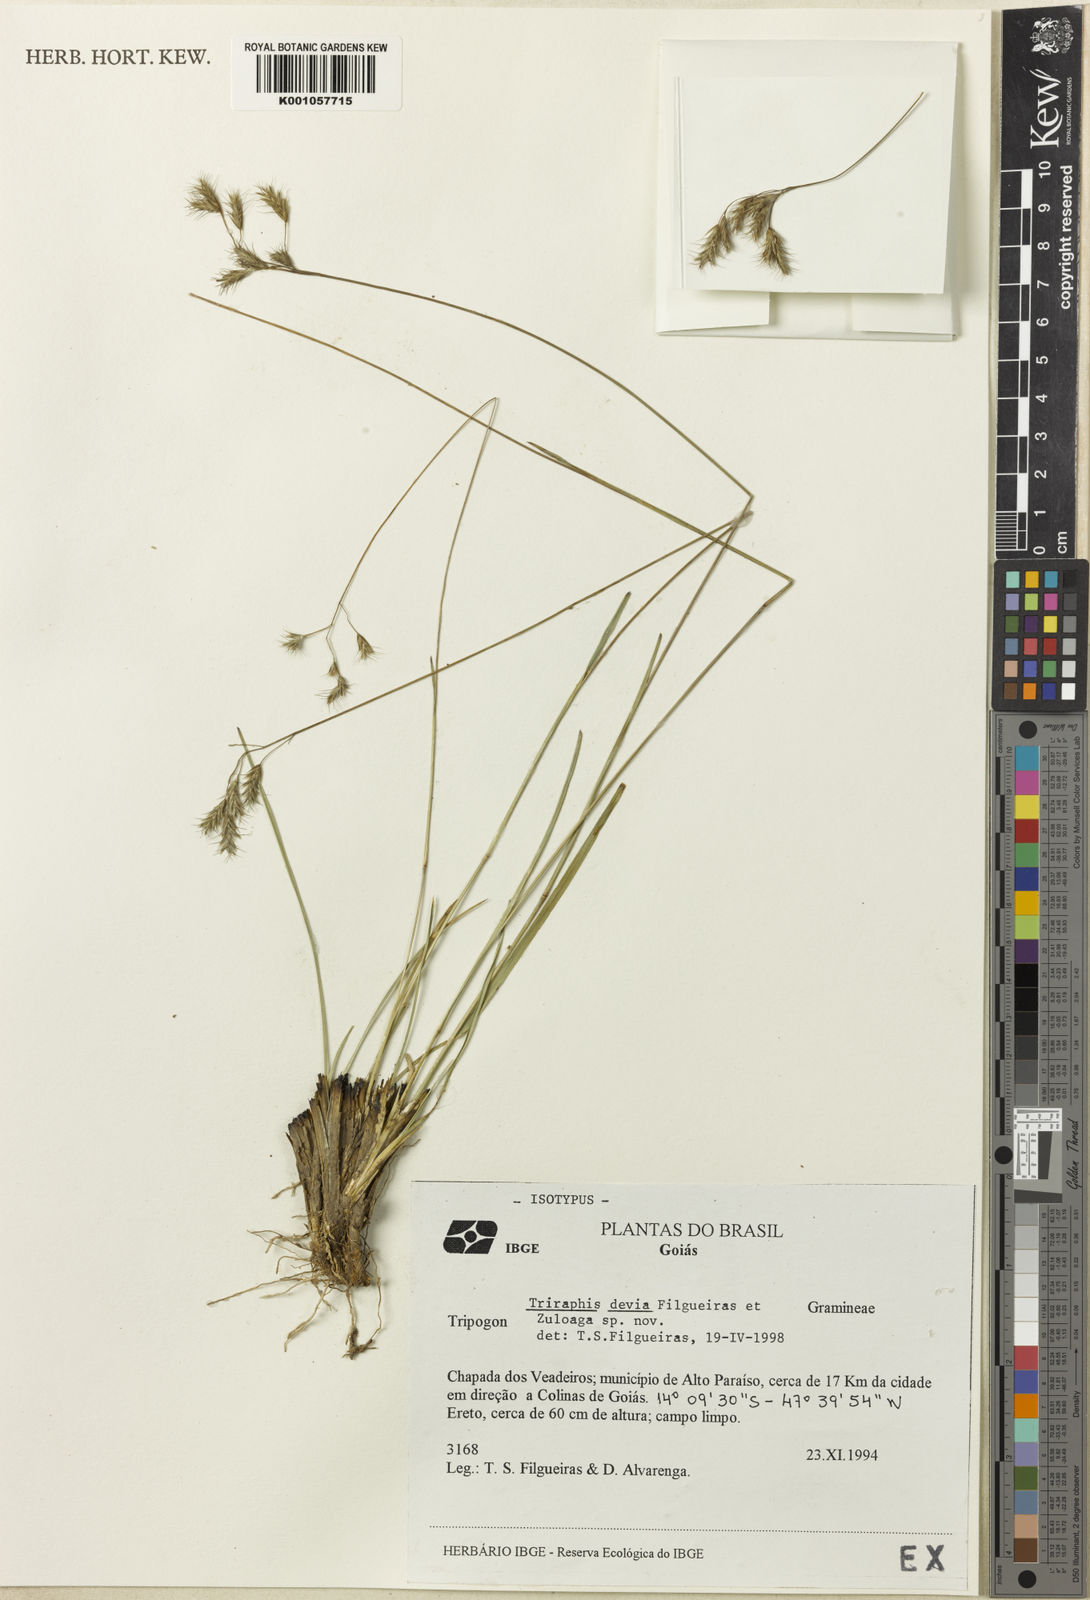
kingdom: Plantae
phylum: Tracheophyta
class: Liliopsida
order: Poales
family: Poaceae
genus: Triraphis
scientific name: Triraphis devia
